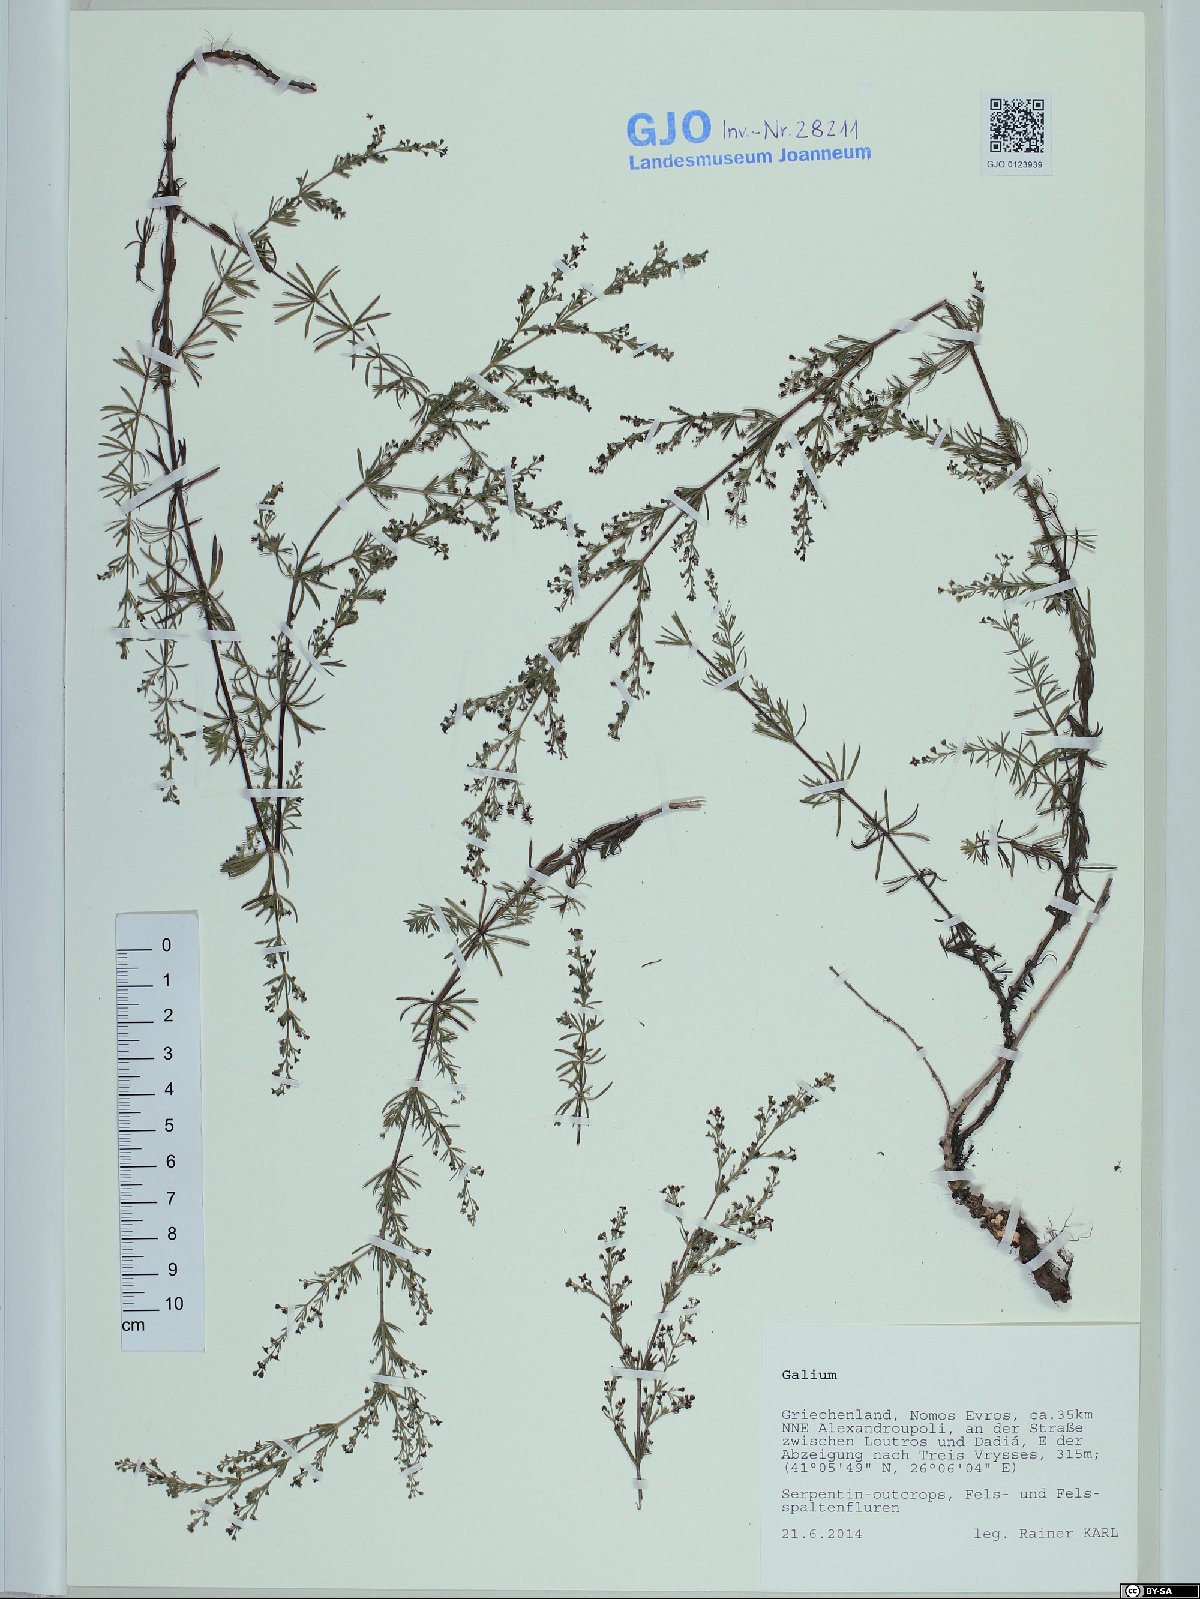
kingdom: Plantae
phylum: Tracheophyta
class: Magnoliopsida
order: Gentianales
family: Rubiaceae
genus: Galium
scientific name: Galium
